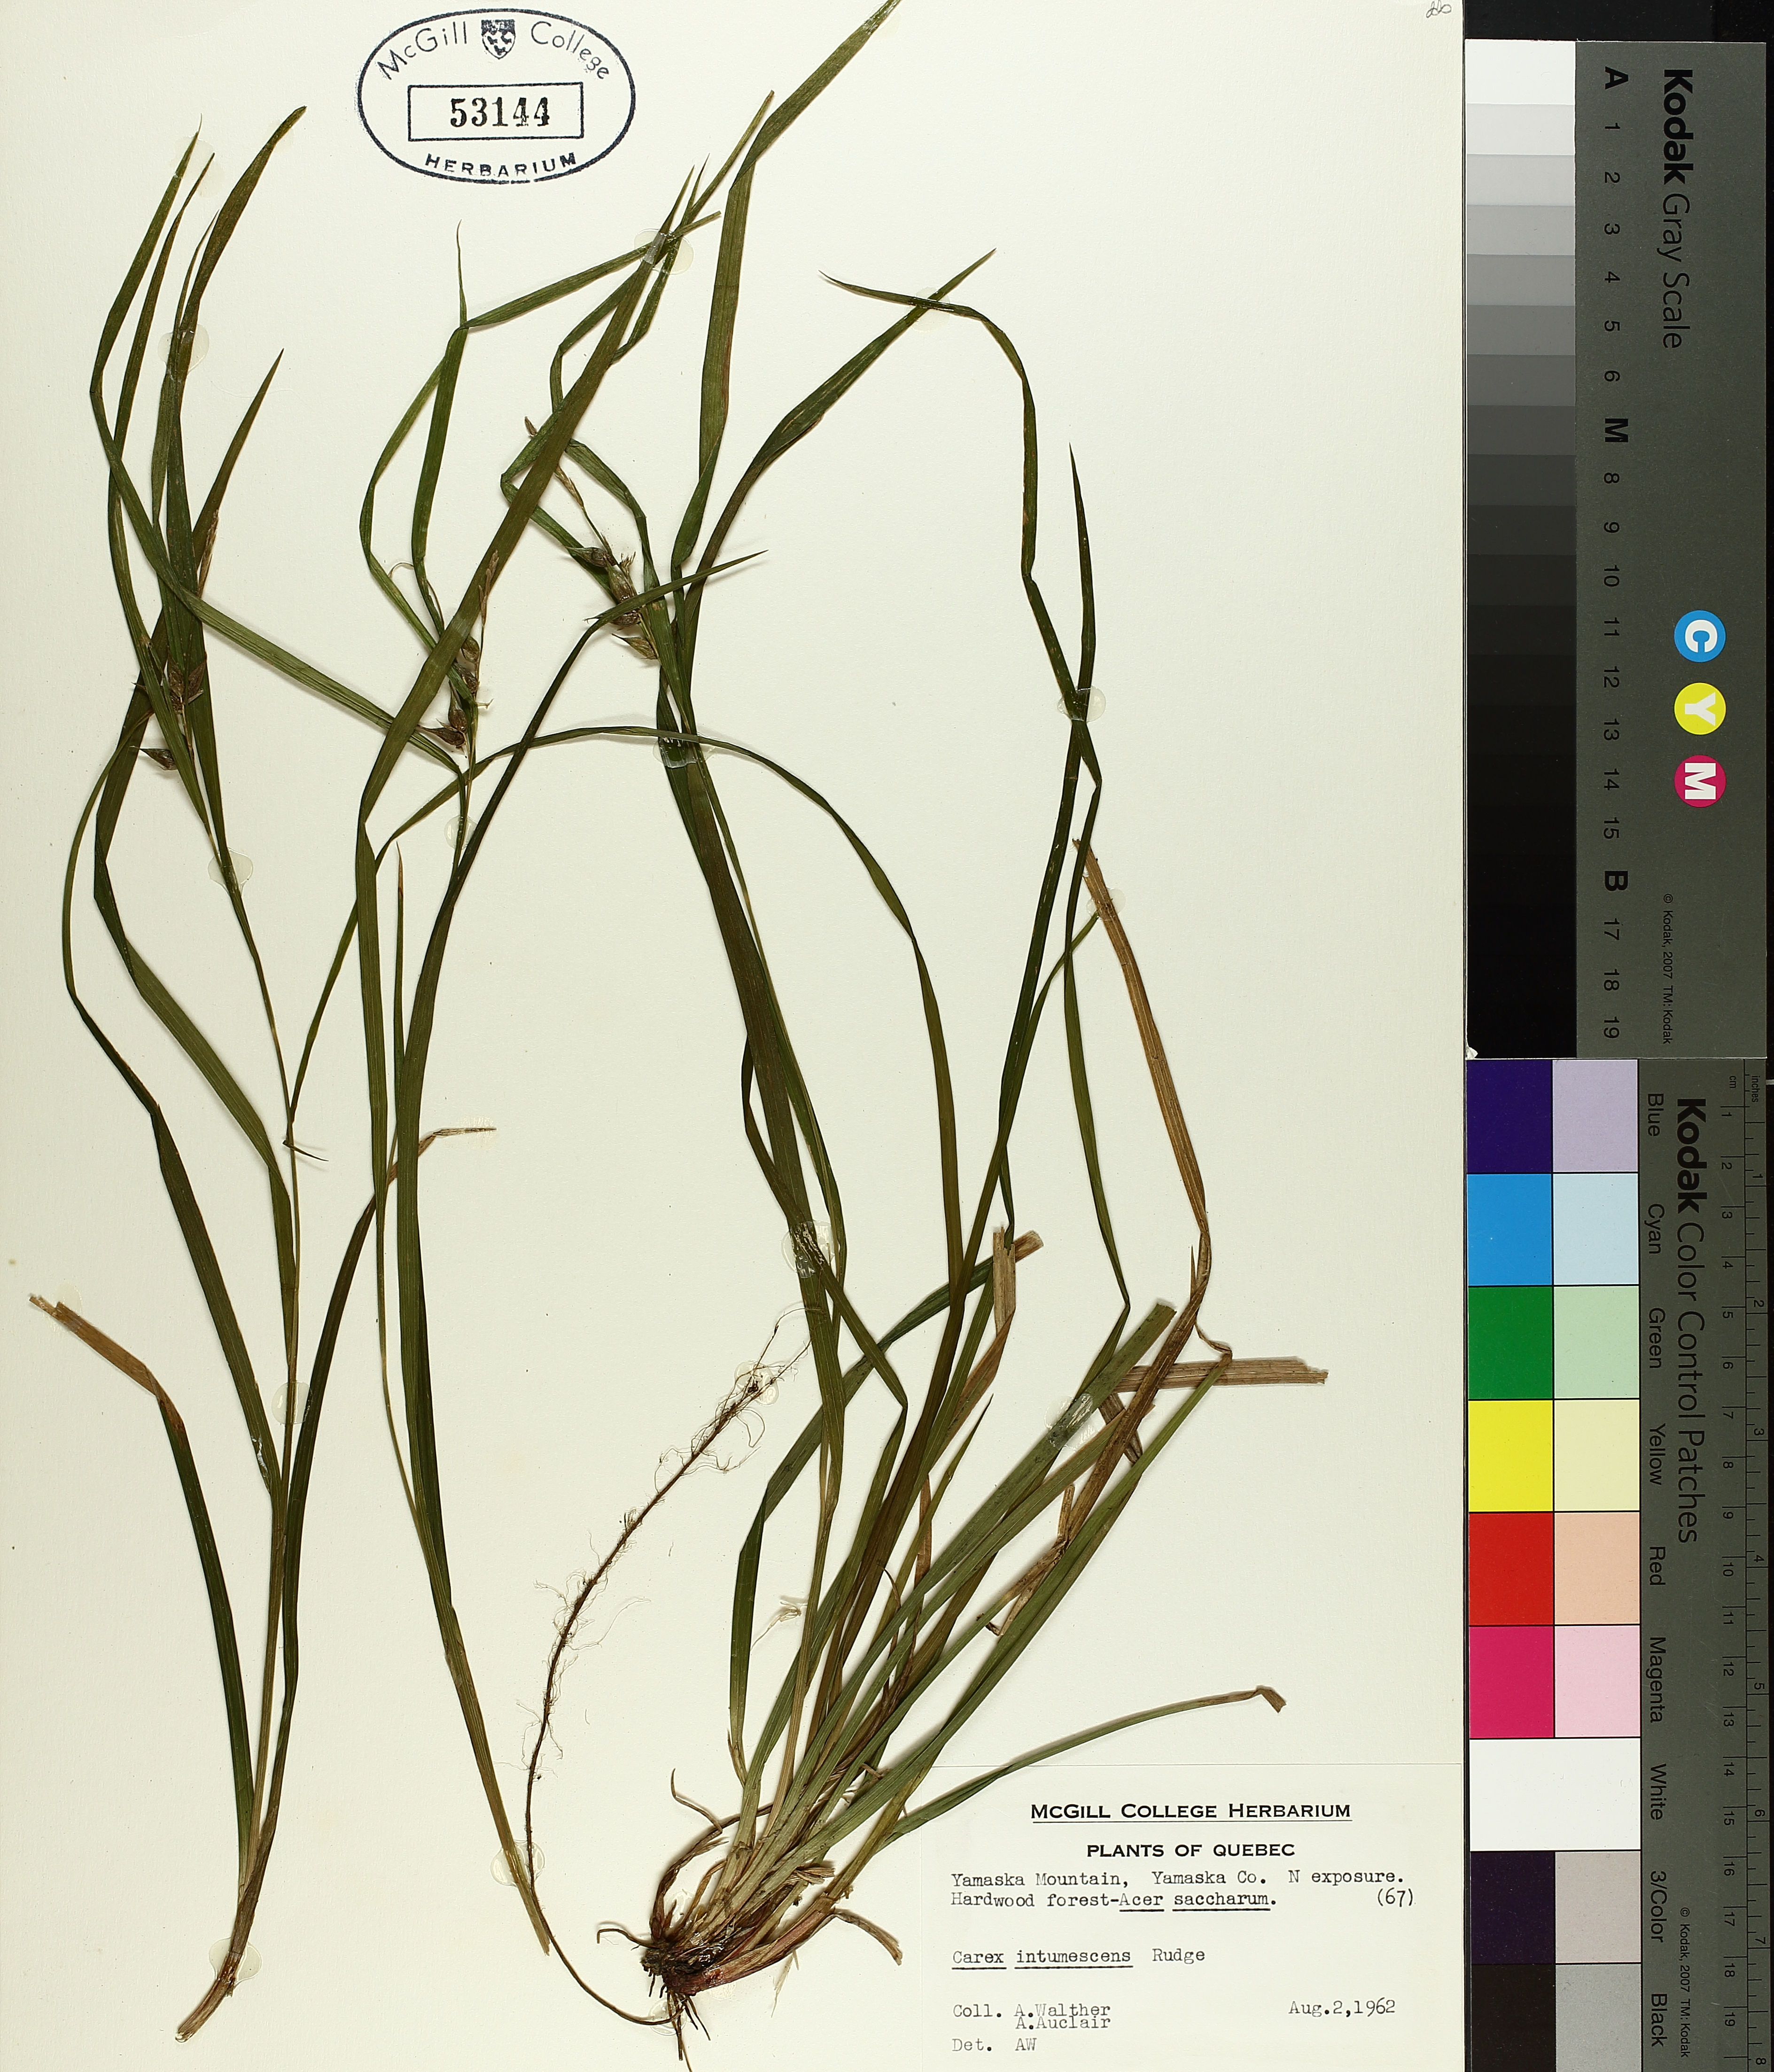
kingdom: Plantae
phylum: Tracheophyta
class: Liliopsida
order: Poales
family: Cyperaceae
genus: Carex
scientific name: Carex intumescens
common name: Greater bladder sedge
